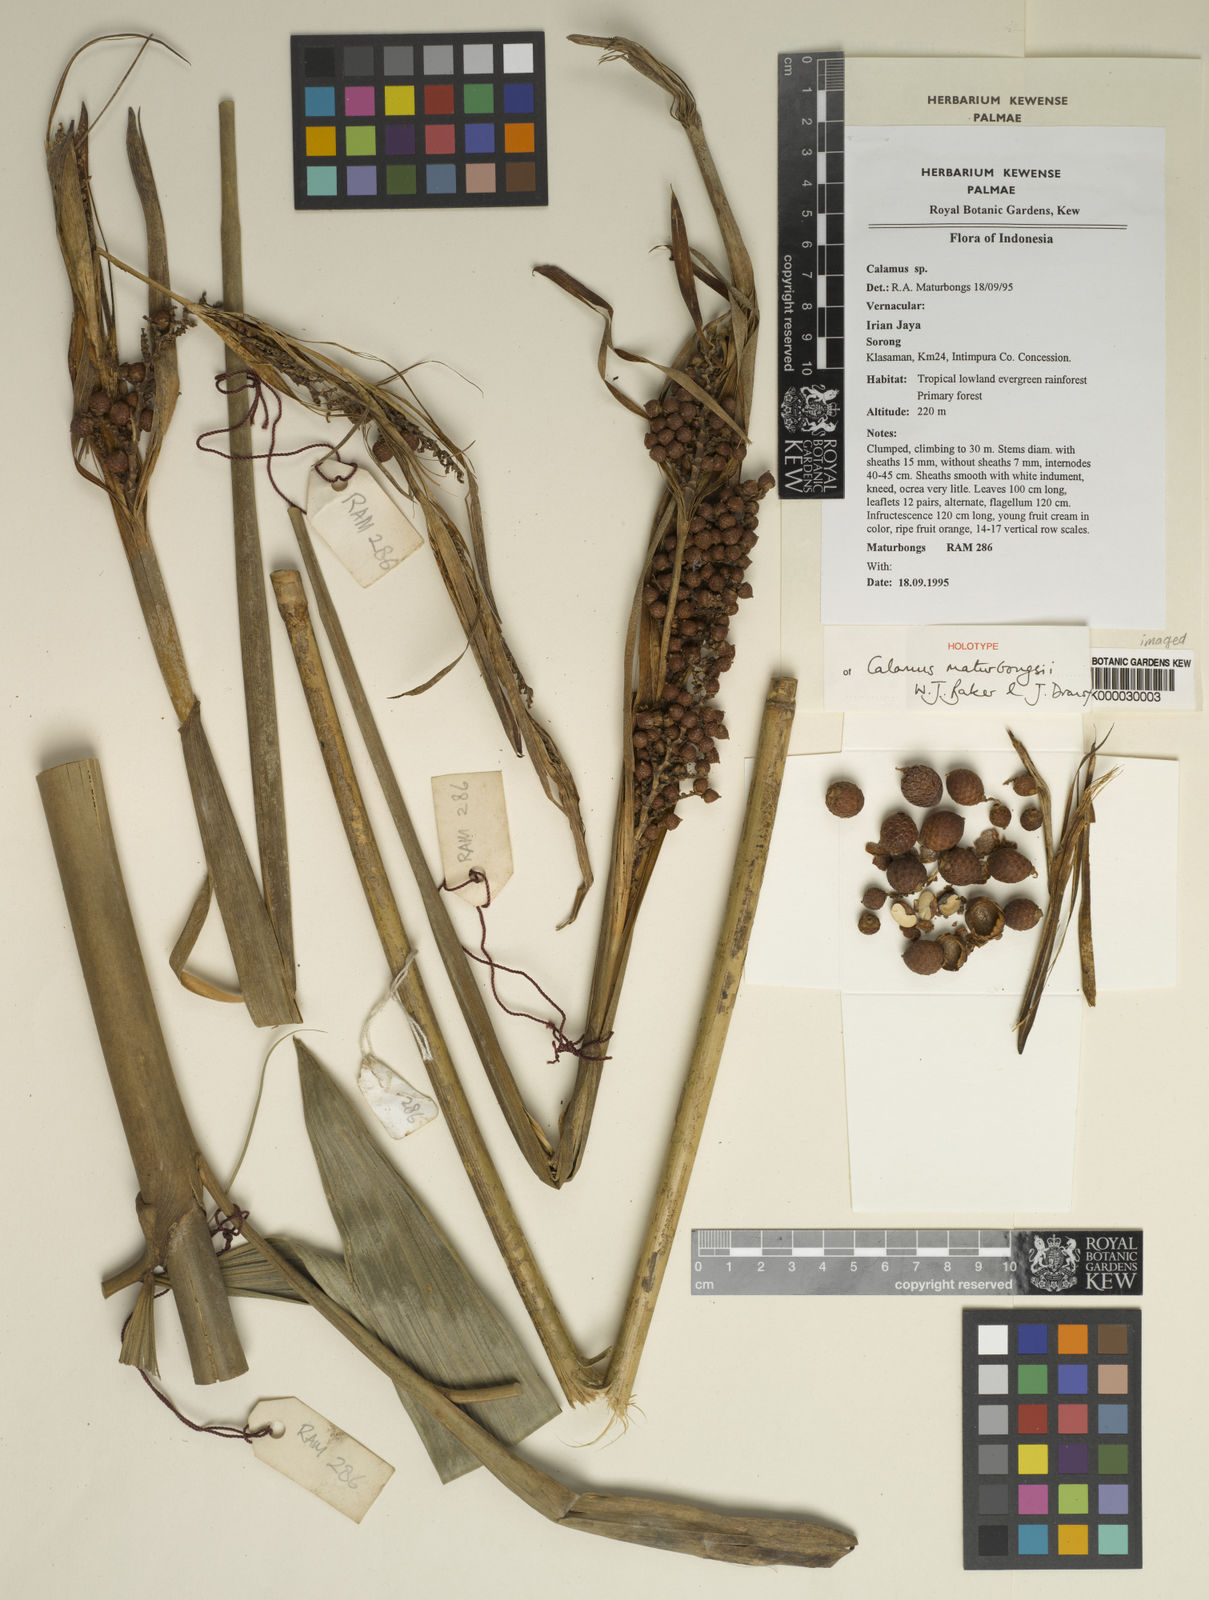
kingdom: Plantae
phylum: Tracheophyta
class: Liliopsida
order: Arecales
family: Arecaceae
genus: Calamus
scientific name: Calamus maturbongsii
